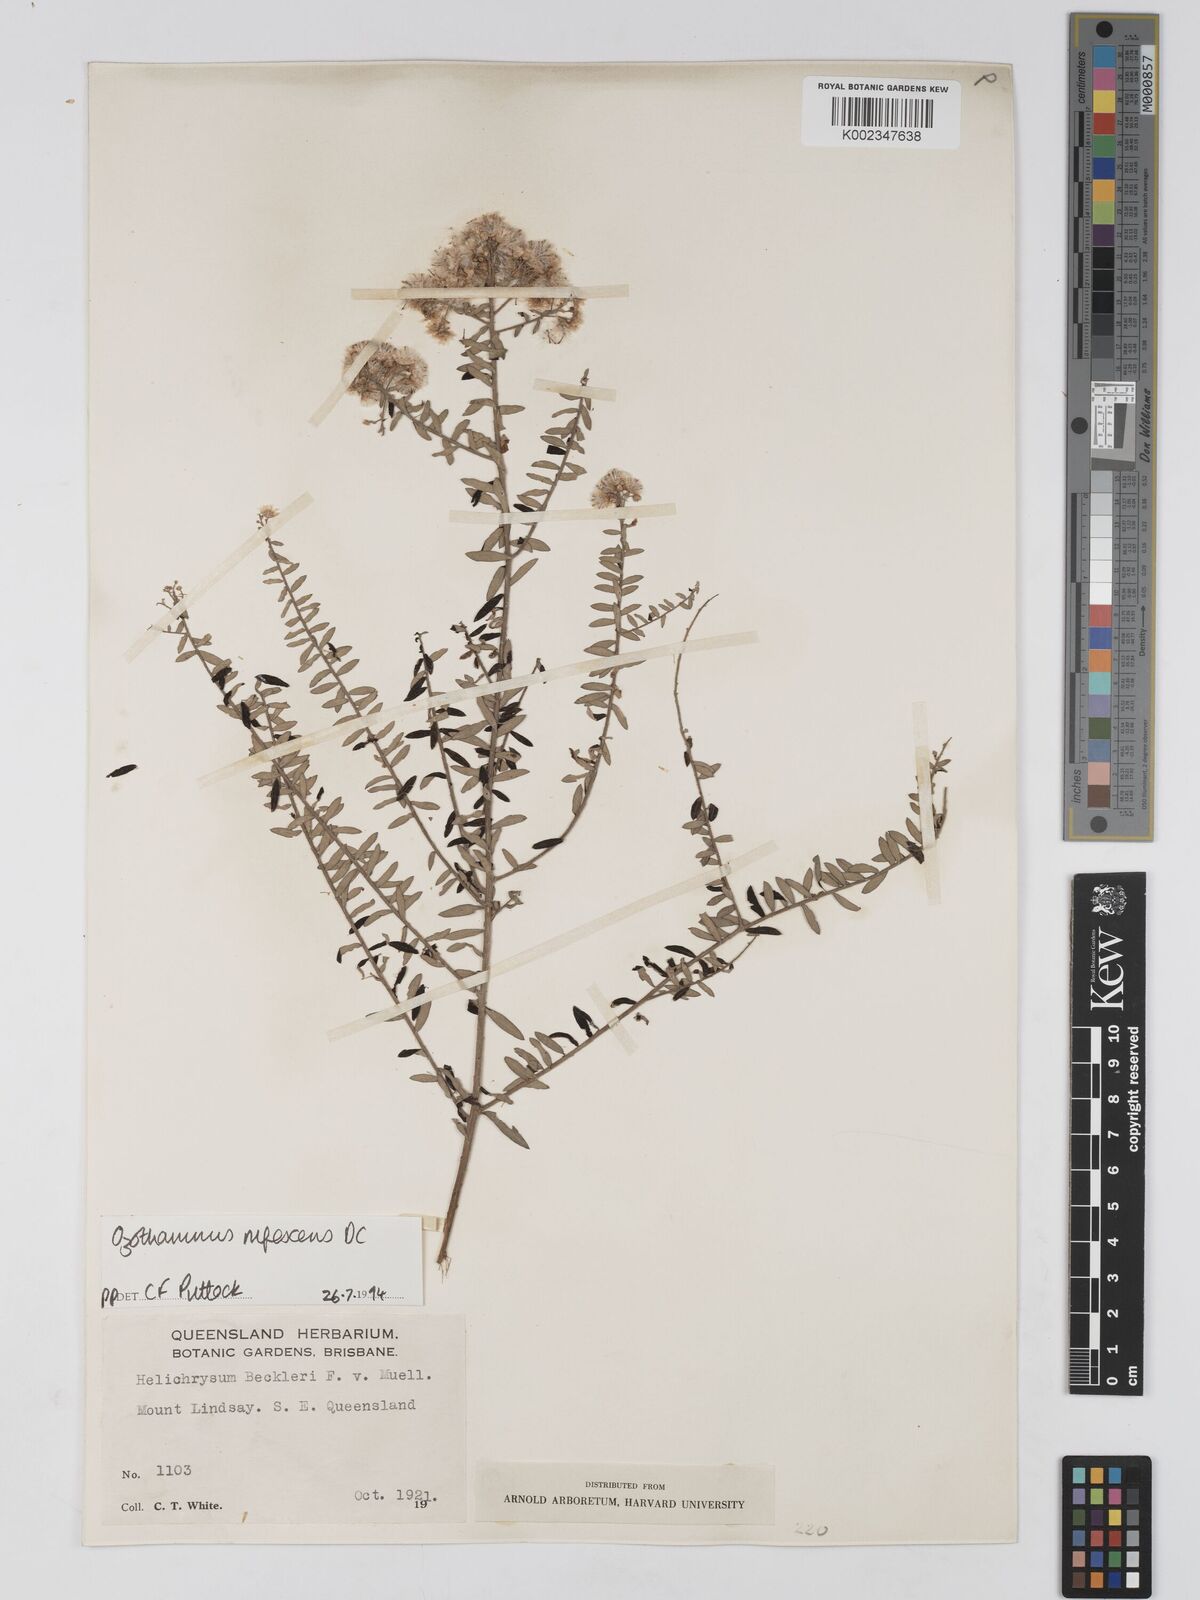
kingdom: Plantae
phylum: Tracheophyta
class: Magnoliopsida
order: Asterales
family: Asteraceae
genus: Ozothamnus
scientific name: Ozothamnus rufescens
